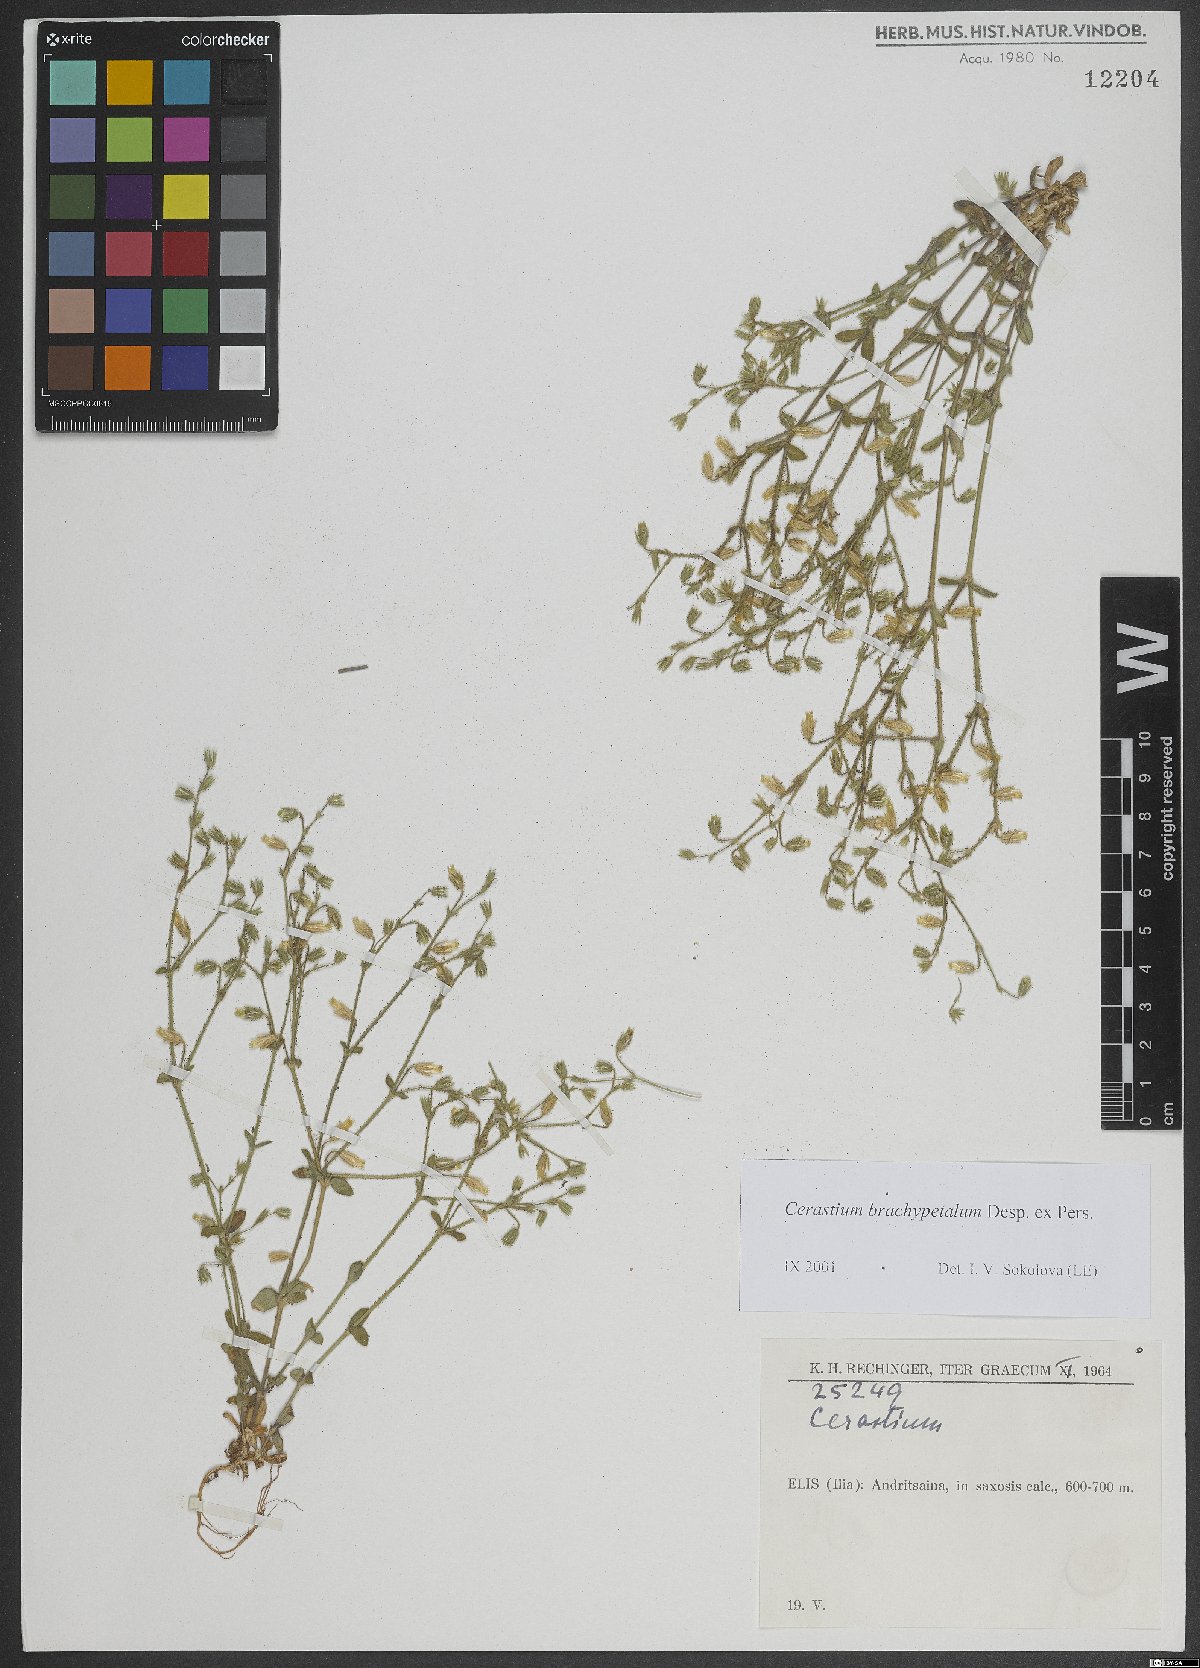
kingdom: Plantae
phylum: Tracheophyta
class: Magnoliopsida
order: Caryophyllales
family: Caryophyllaceae
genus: Cerastium
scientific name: Cerastium brachypetalum
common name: Grey mouse-ear
